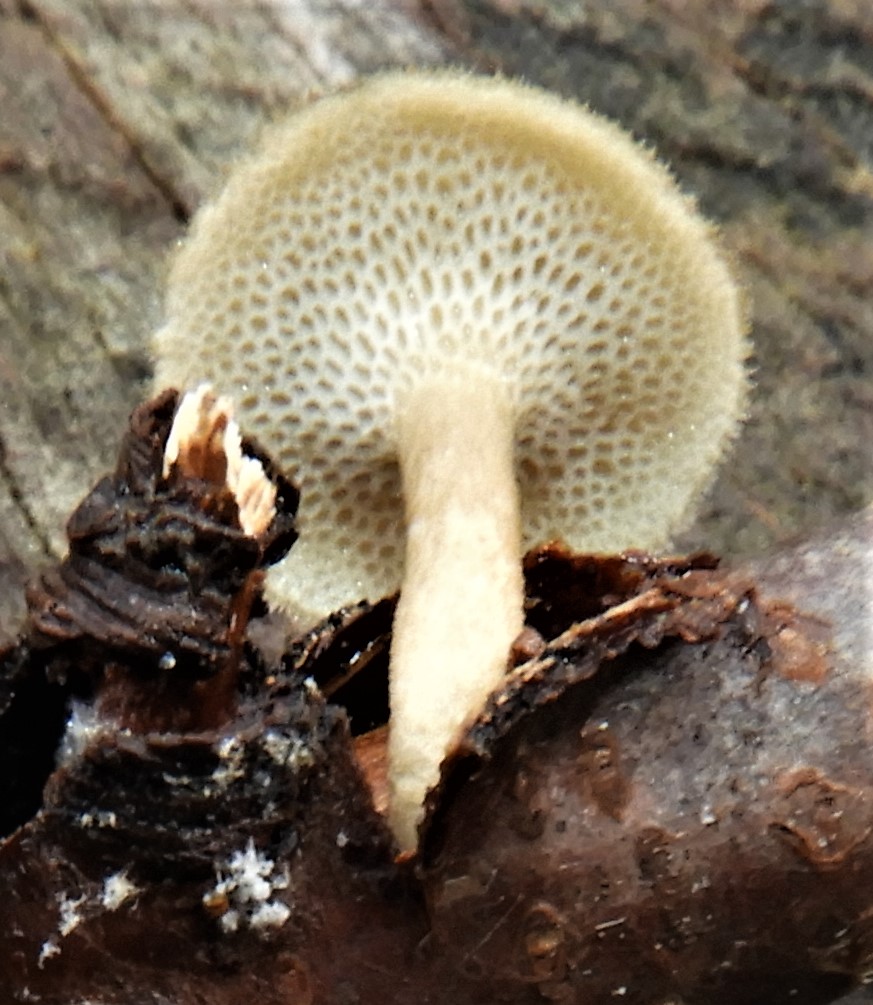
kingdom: Fungi
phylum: Basidiomycota
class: Agaricomycetes
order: Polyporales
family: Polyporaceae
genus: Lentinus
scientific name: Lentinus substrictus
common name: forårs-stilkporesvamp
